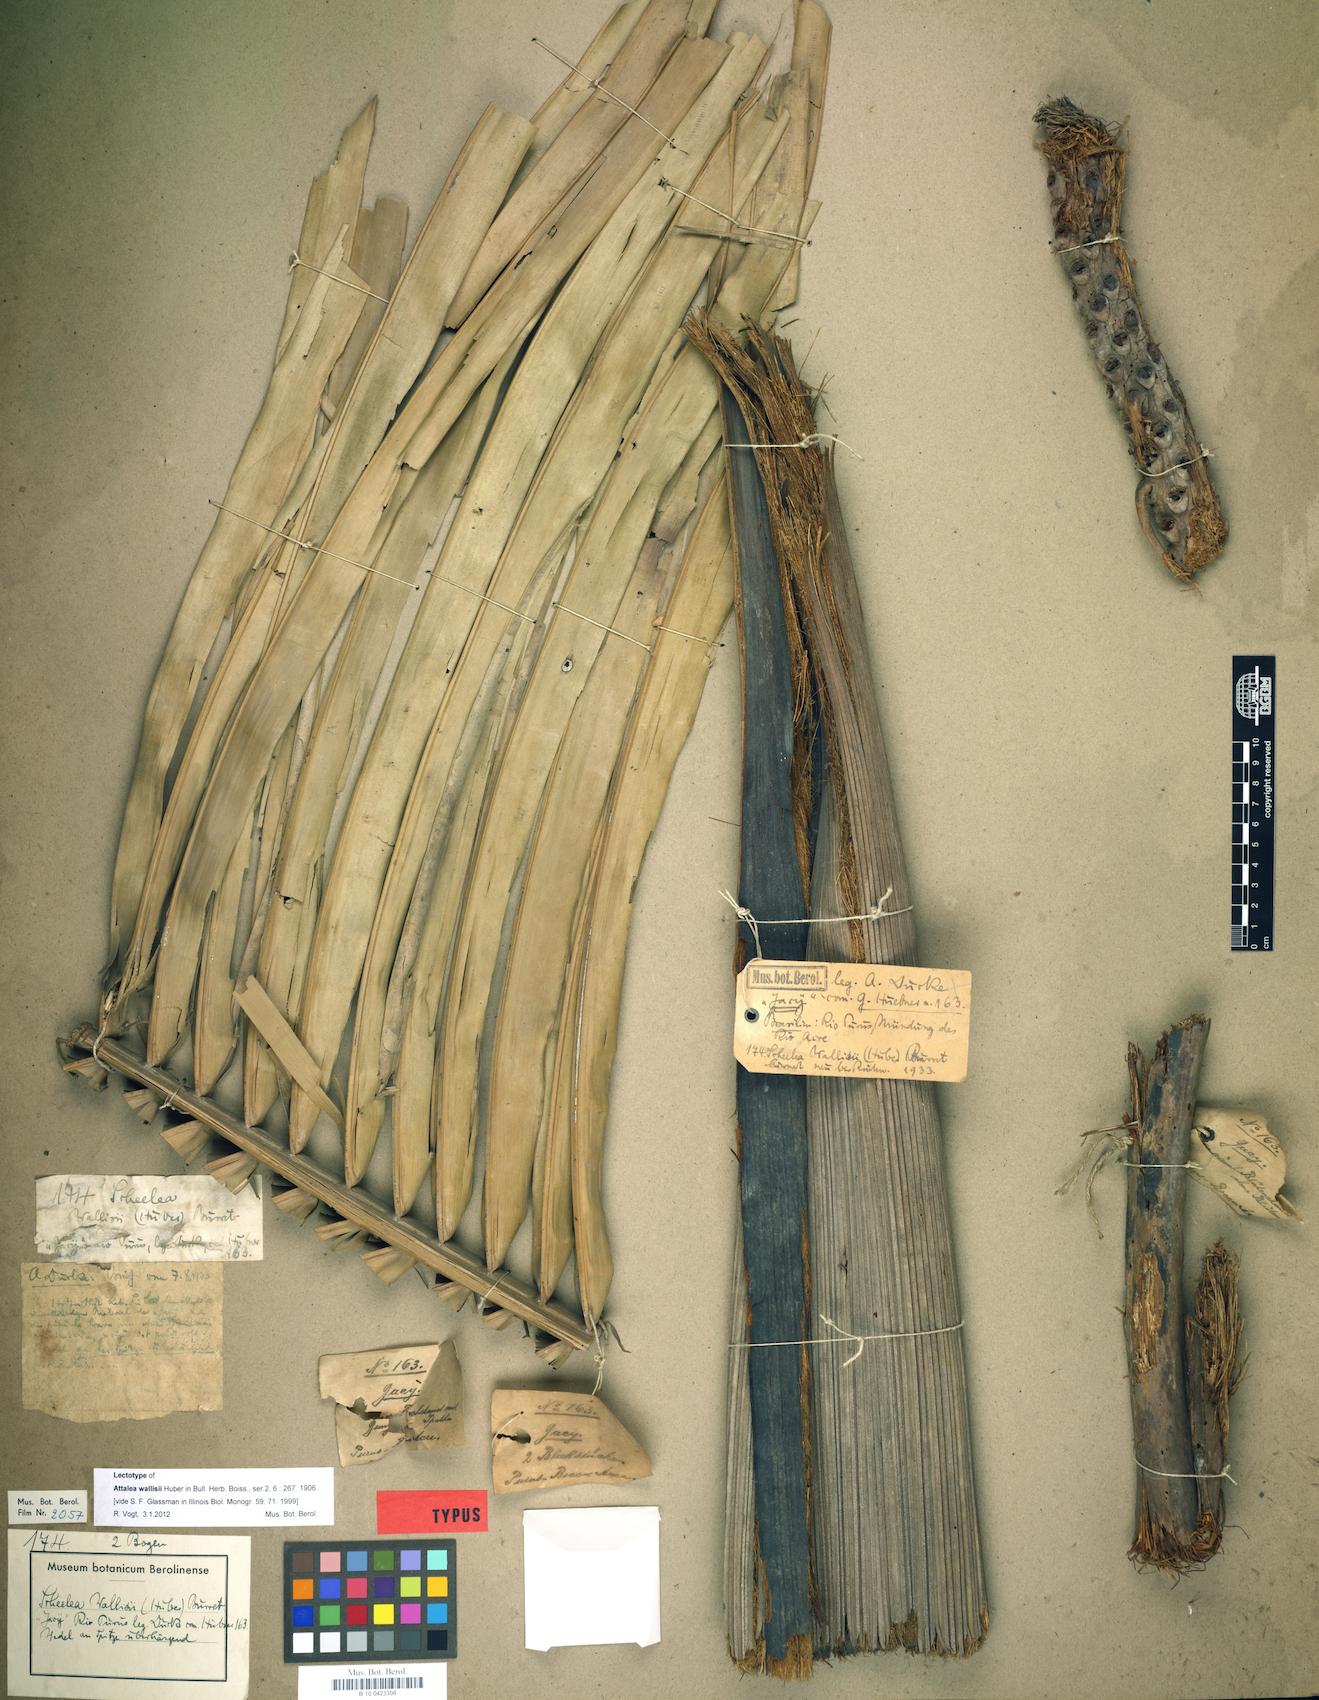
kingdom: Plantae
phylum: Tracheophyta
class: Liliopsida
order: Arecales
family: Arecaceae
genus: Attalea
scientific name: Attalea butyracea
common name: Kuakish
